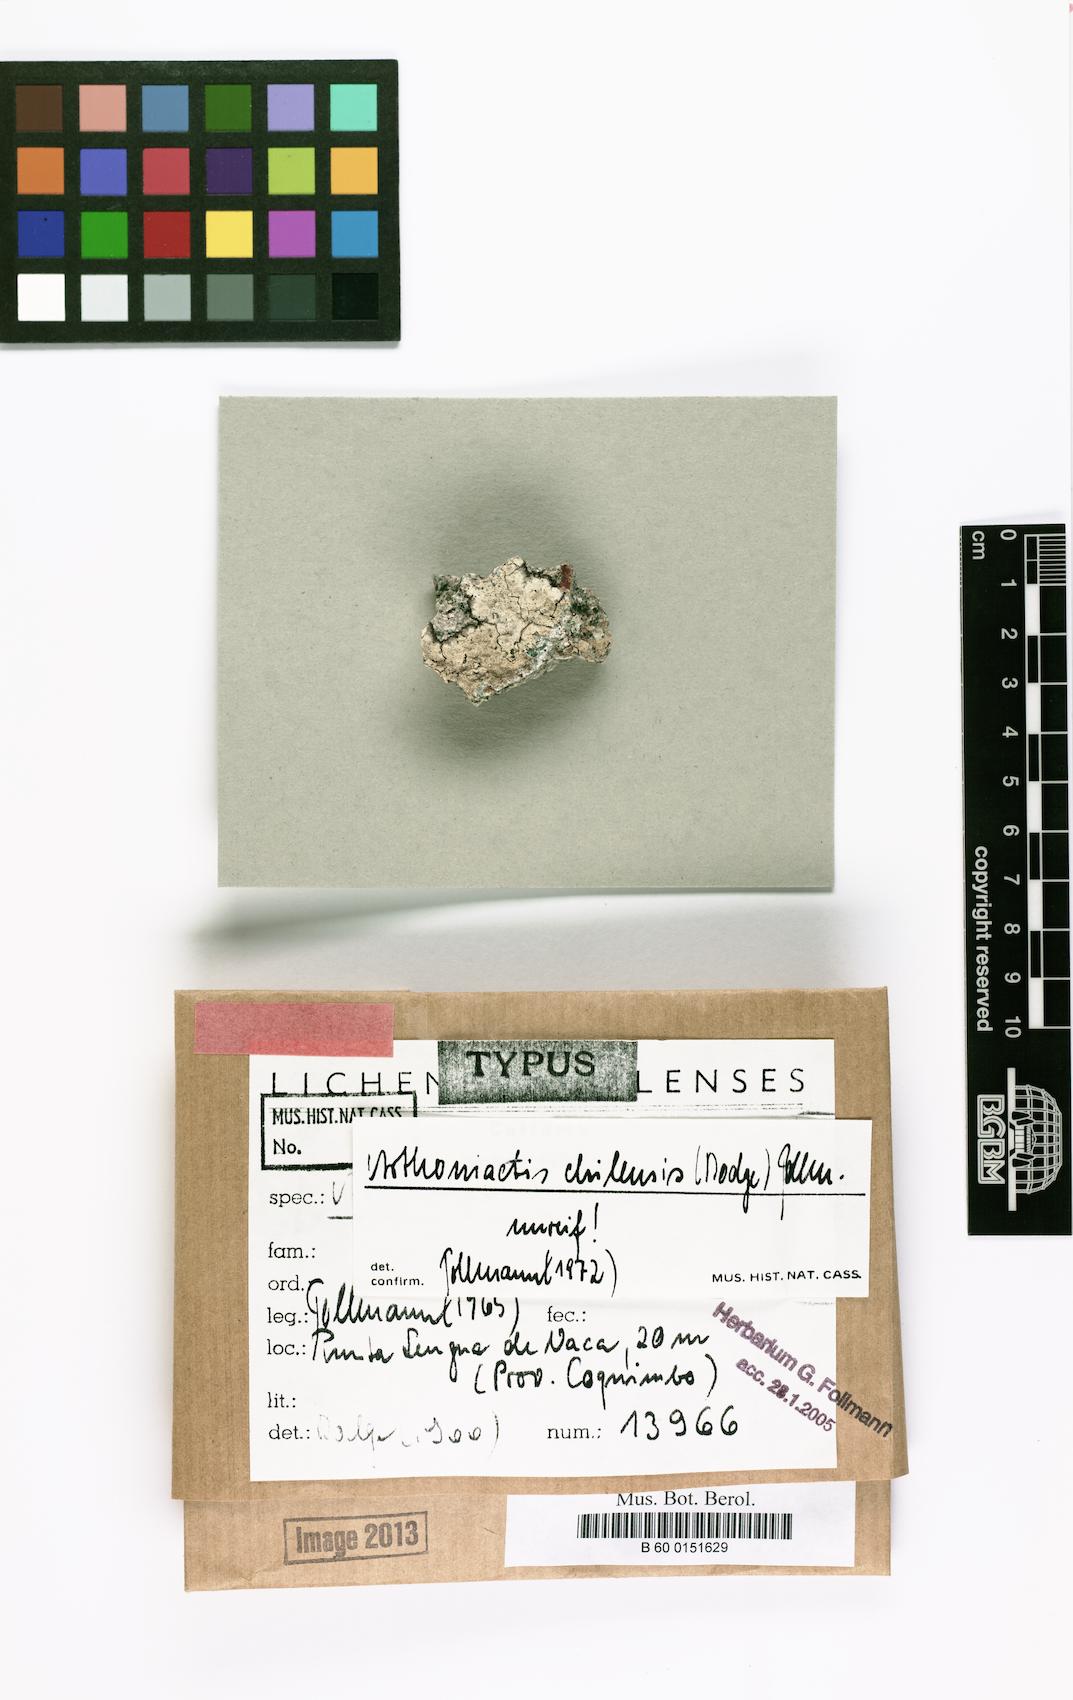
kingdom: Fungi
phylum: Ascomycota
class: Arthoniomycetes
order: Arthoniales
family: Roccellaceae
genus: Arthoniactis
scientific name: Arthoniactis
